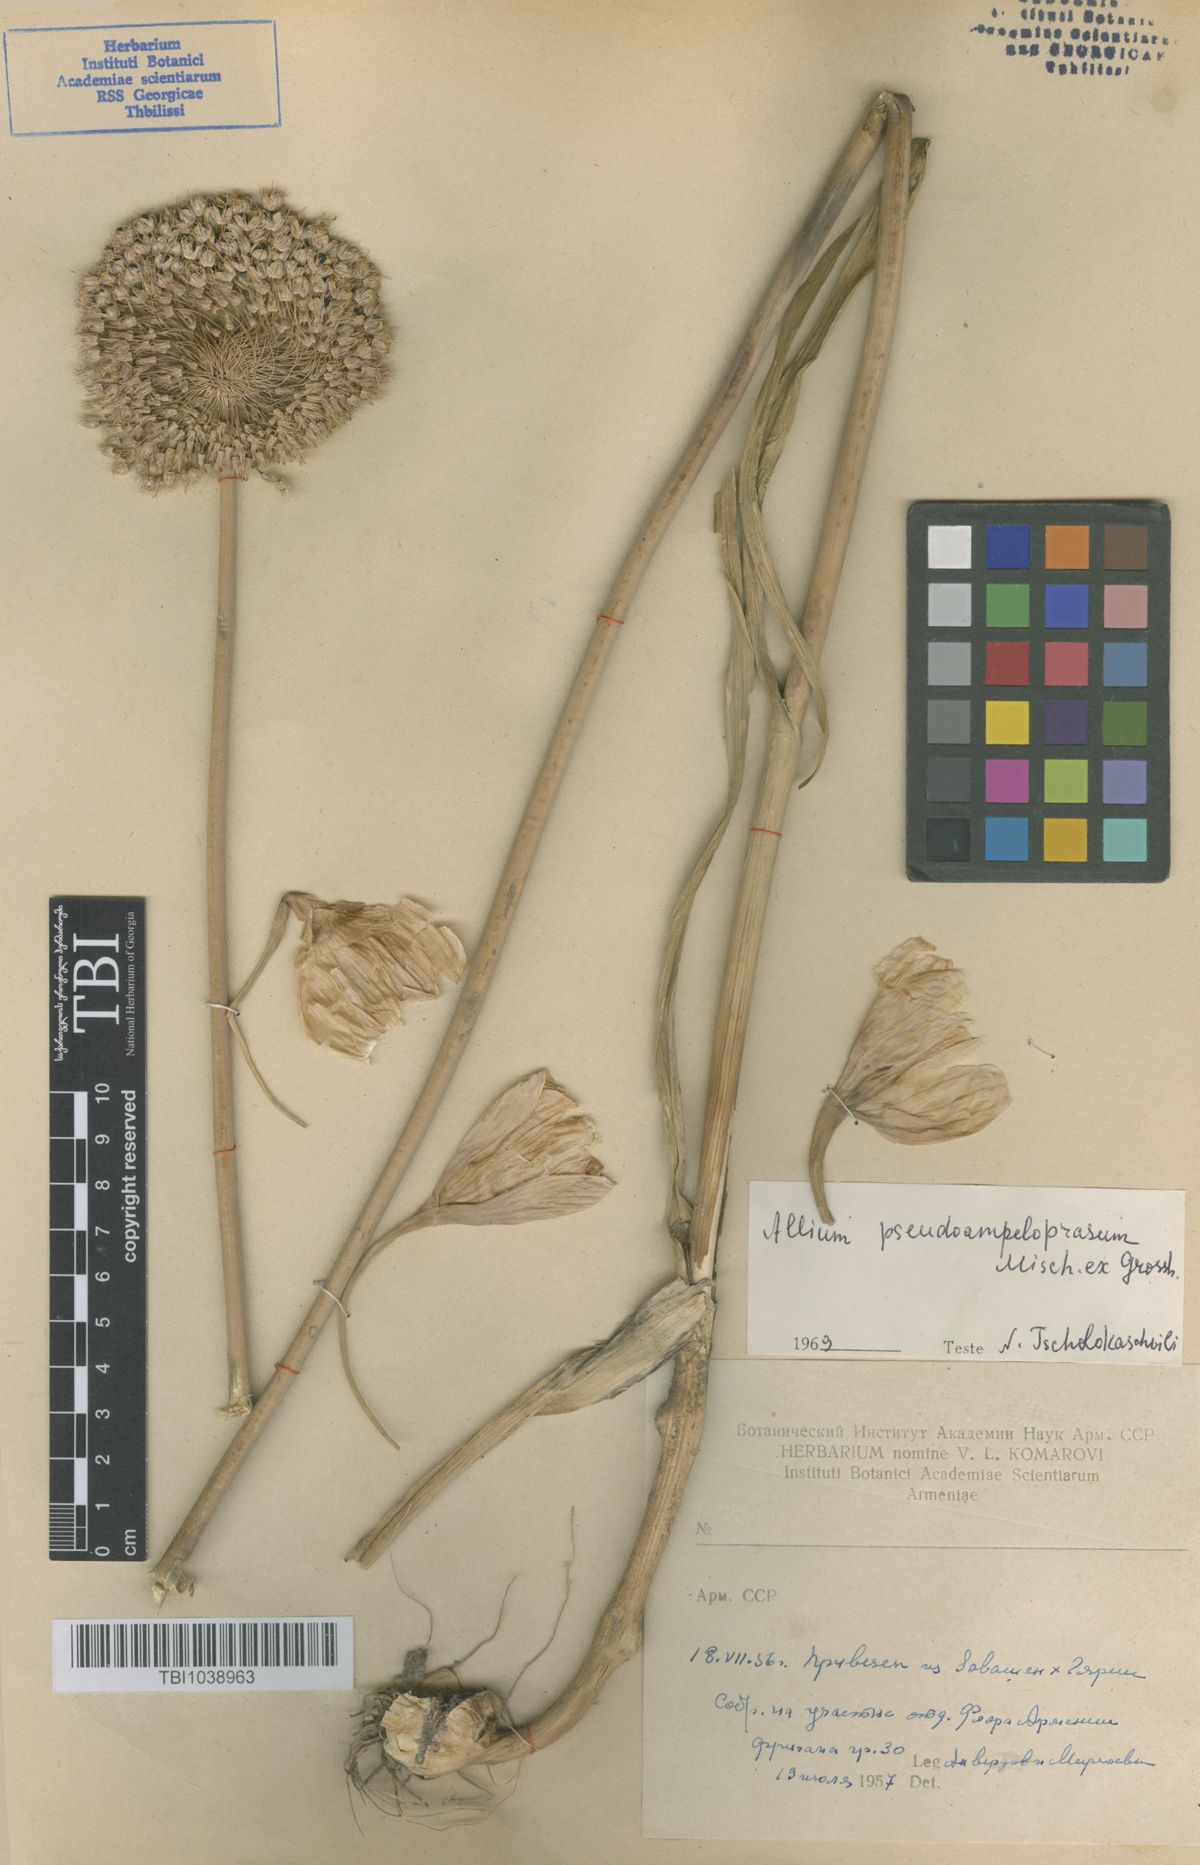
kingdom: Plantae
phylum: Tracheophyta
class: Liliopsida
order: Asparagales
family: Amaryllidaceae
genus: Allium
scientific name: Allium pseudoampeloprasum
